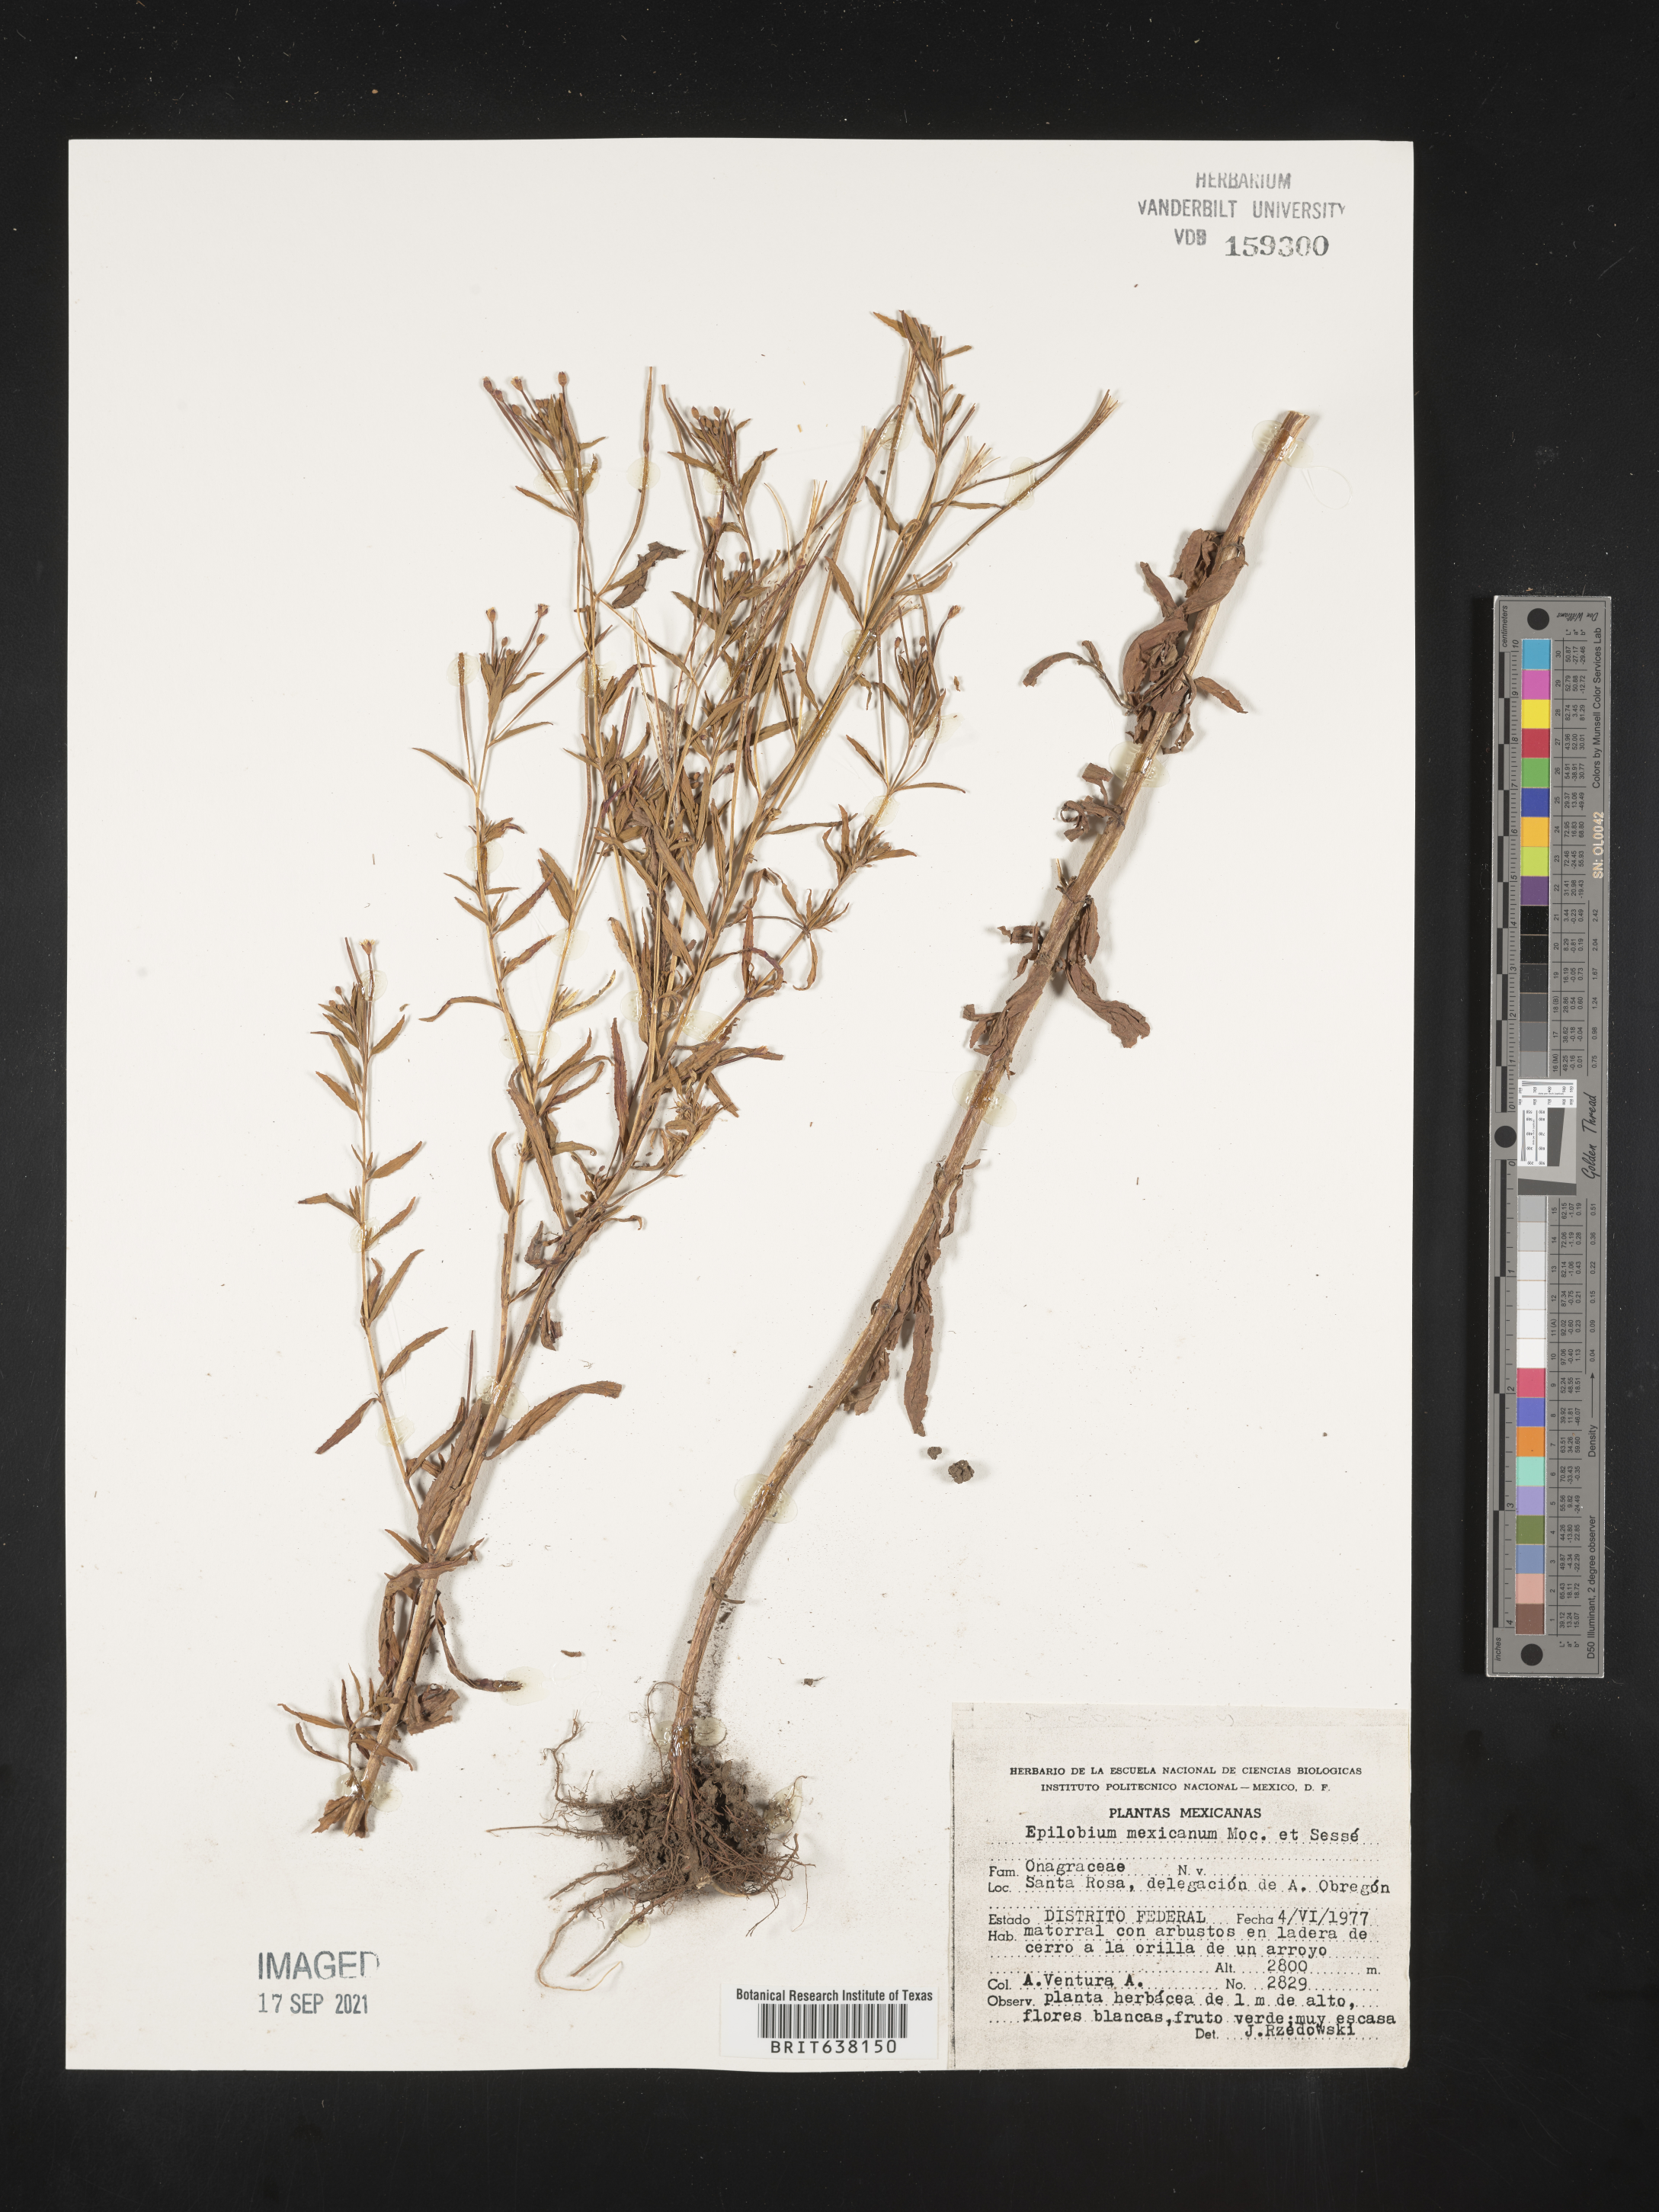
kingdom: Plantae
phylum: Tracheophyta
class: Magnoliopsida
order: Myrtales
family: Onagraceae
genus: Epilobium
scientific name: Epilobium
